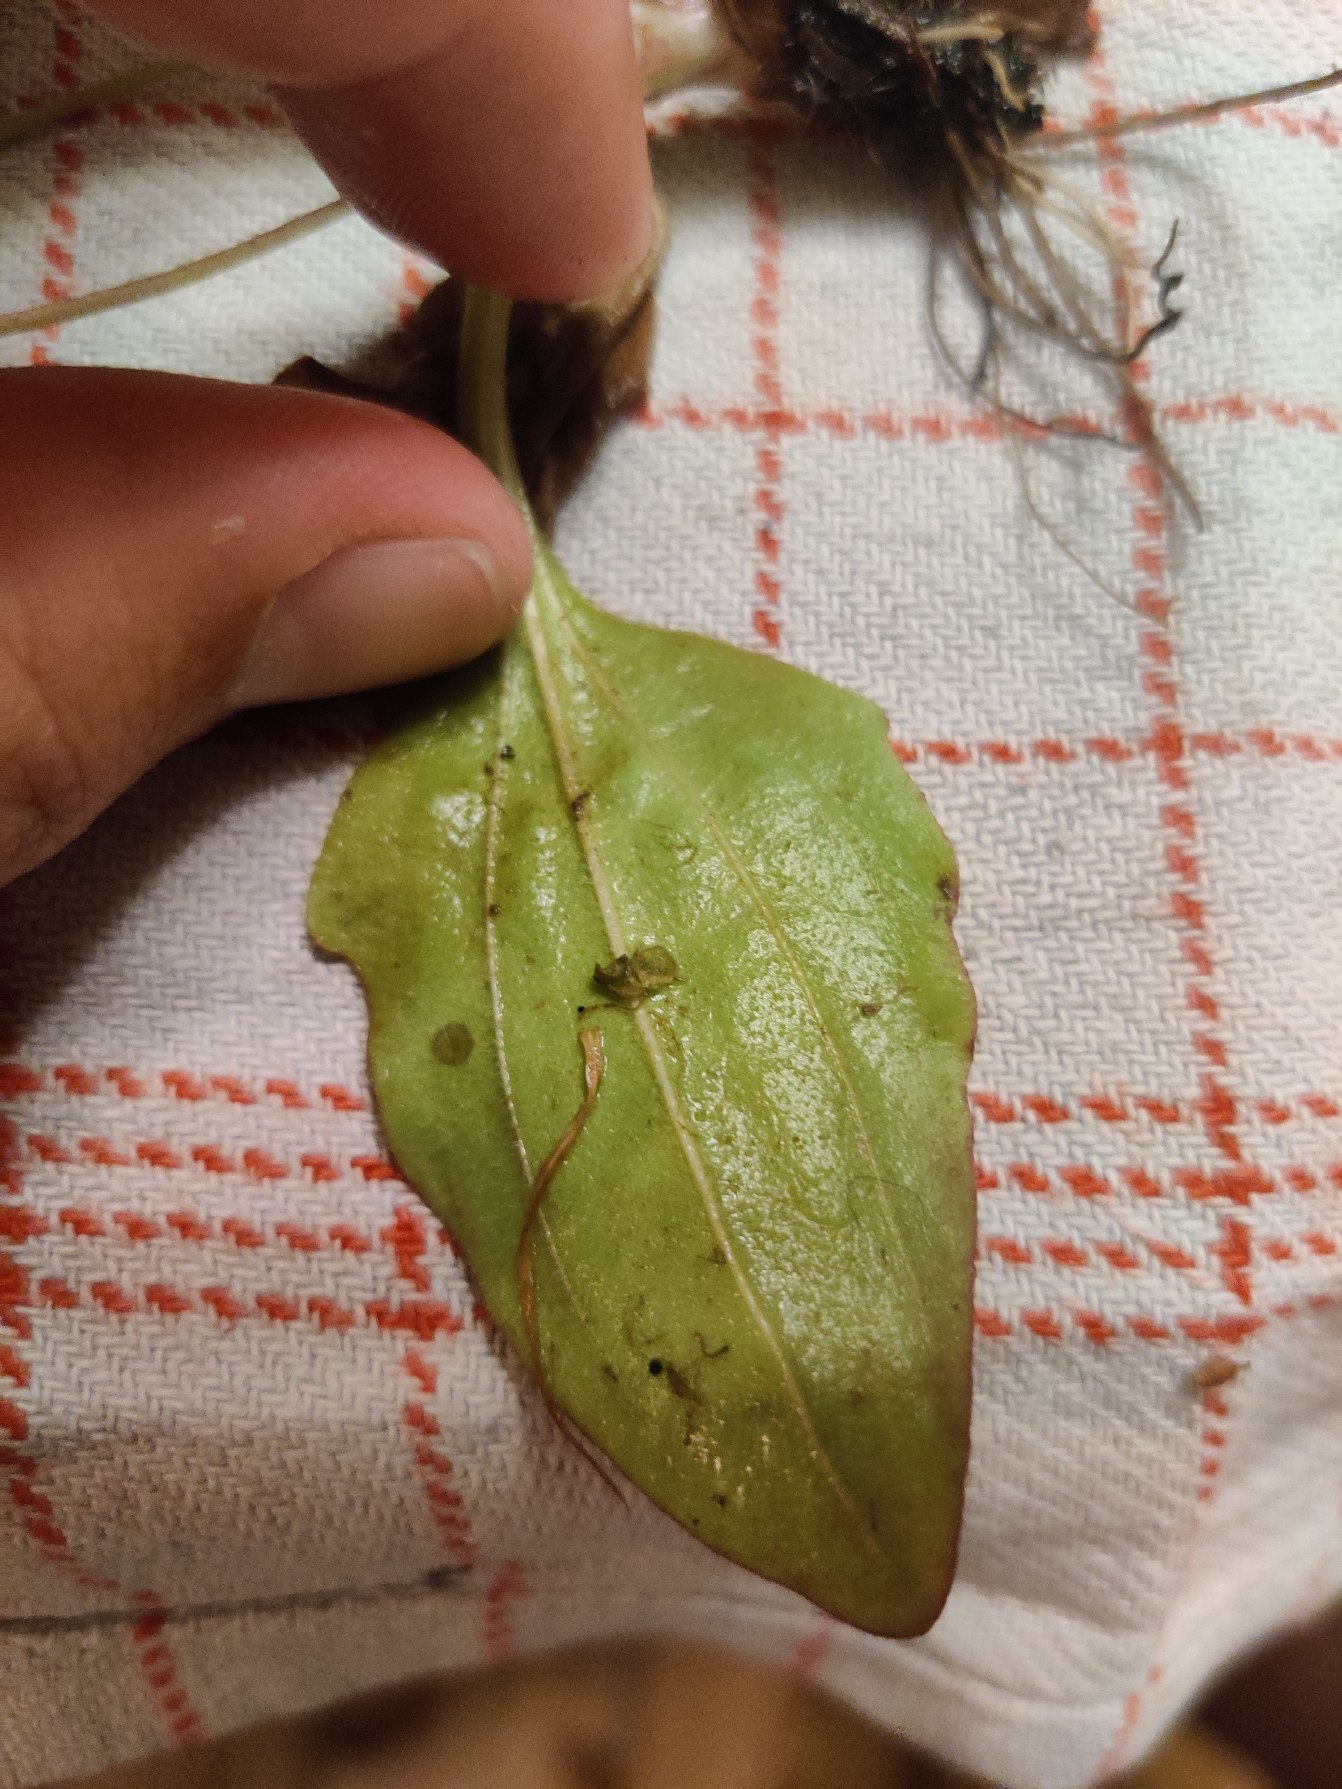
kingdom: Plantae
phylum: Tracheophyta
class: Magnoliopsida
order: Lamiales
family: Plantaginaceae
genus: Plantago
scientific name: Plantago uliginosa
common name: Ager-vejbred
